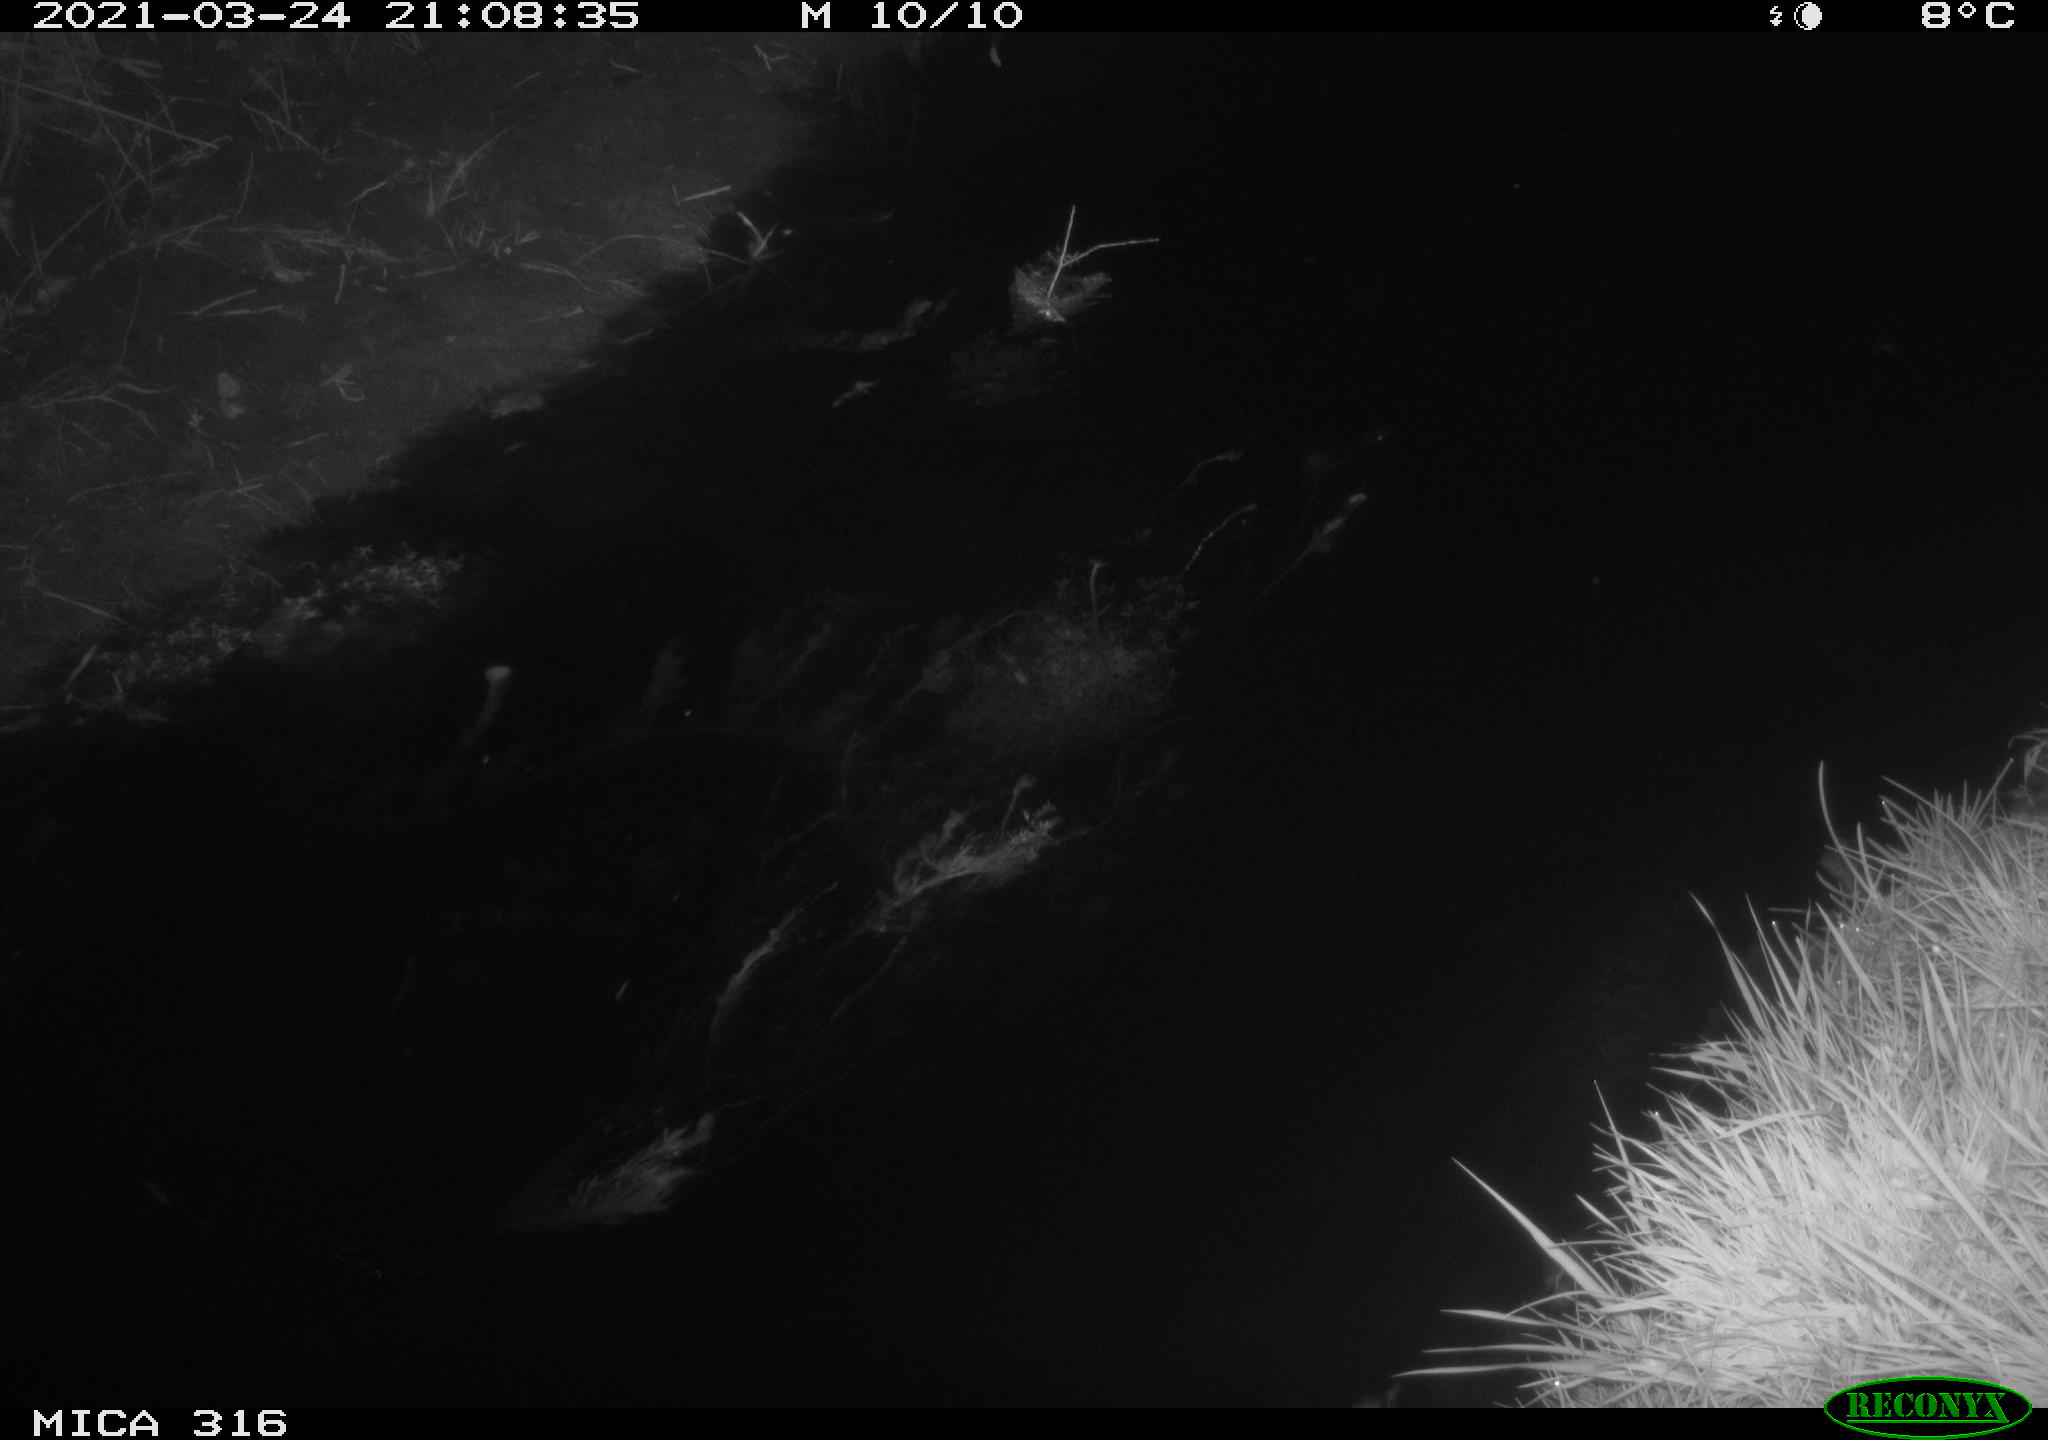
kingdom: Animalia
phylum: Chordata
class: Aves
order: Anseriformes
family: Anatidae
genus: Anas
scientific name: Anas platyrhynchos
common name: Mallard
